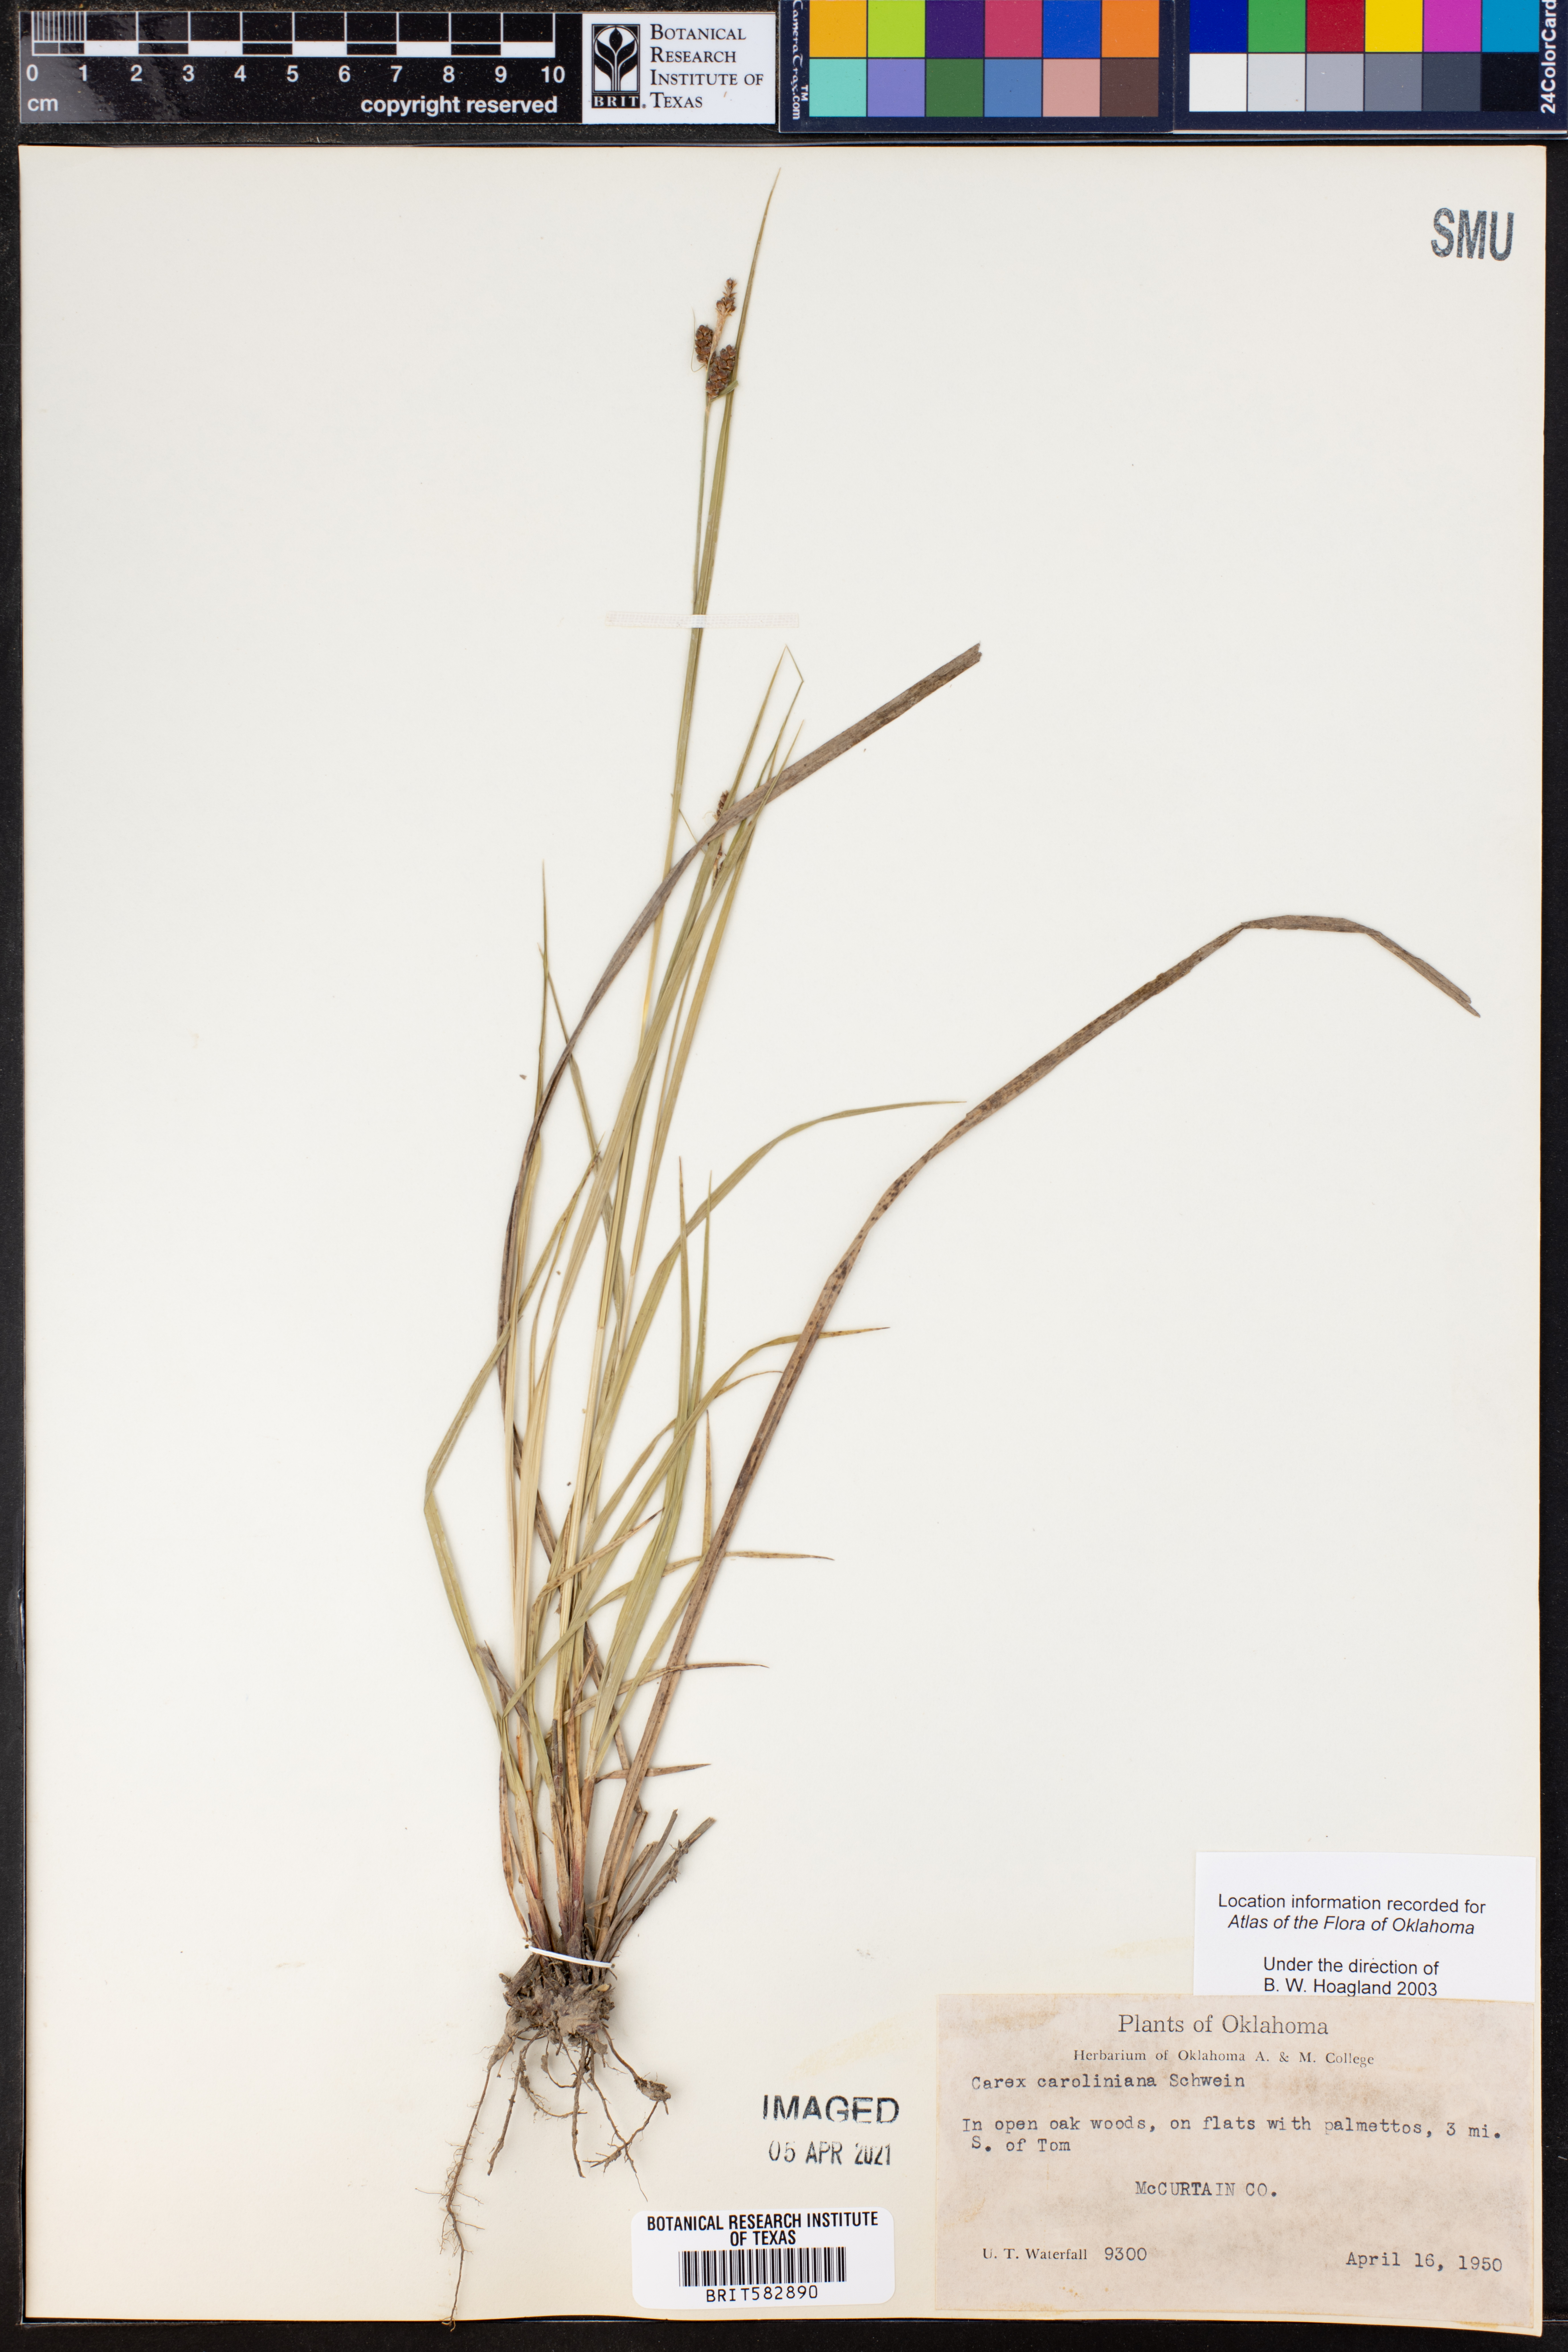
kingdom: Plantae
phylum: Tracheophyta
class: Liliopsida
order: Poales
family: Cyperaceae
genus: Carex
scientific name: Carex caroliniana
